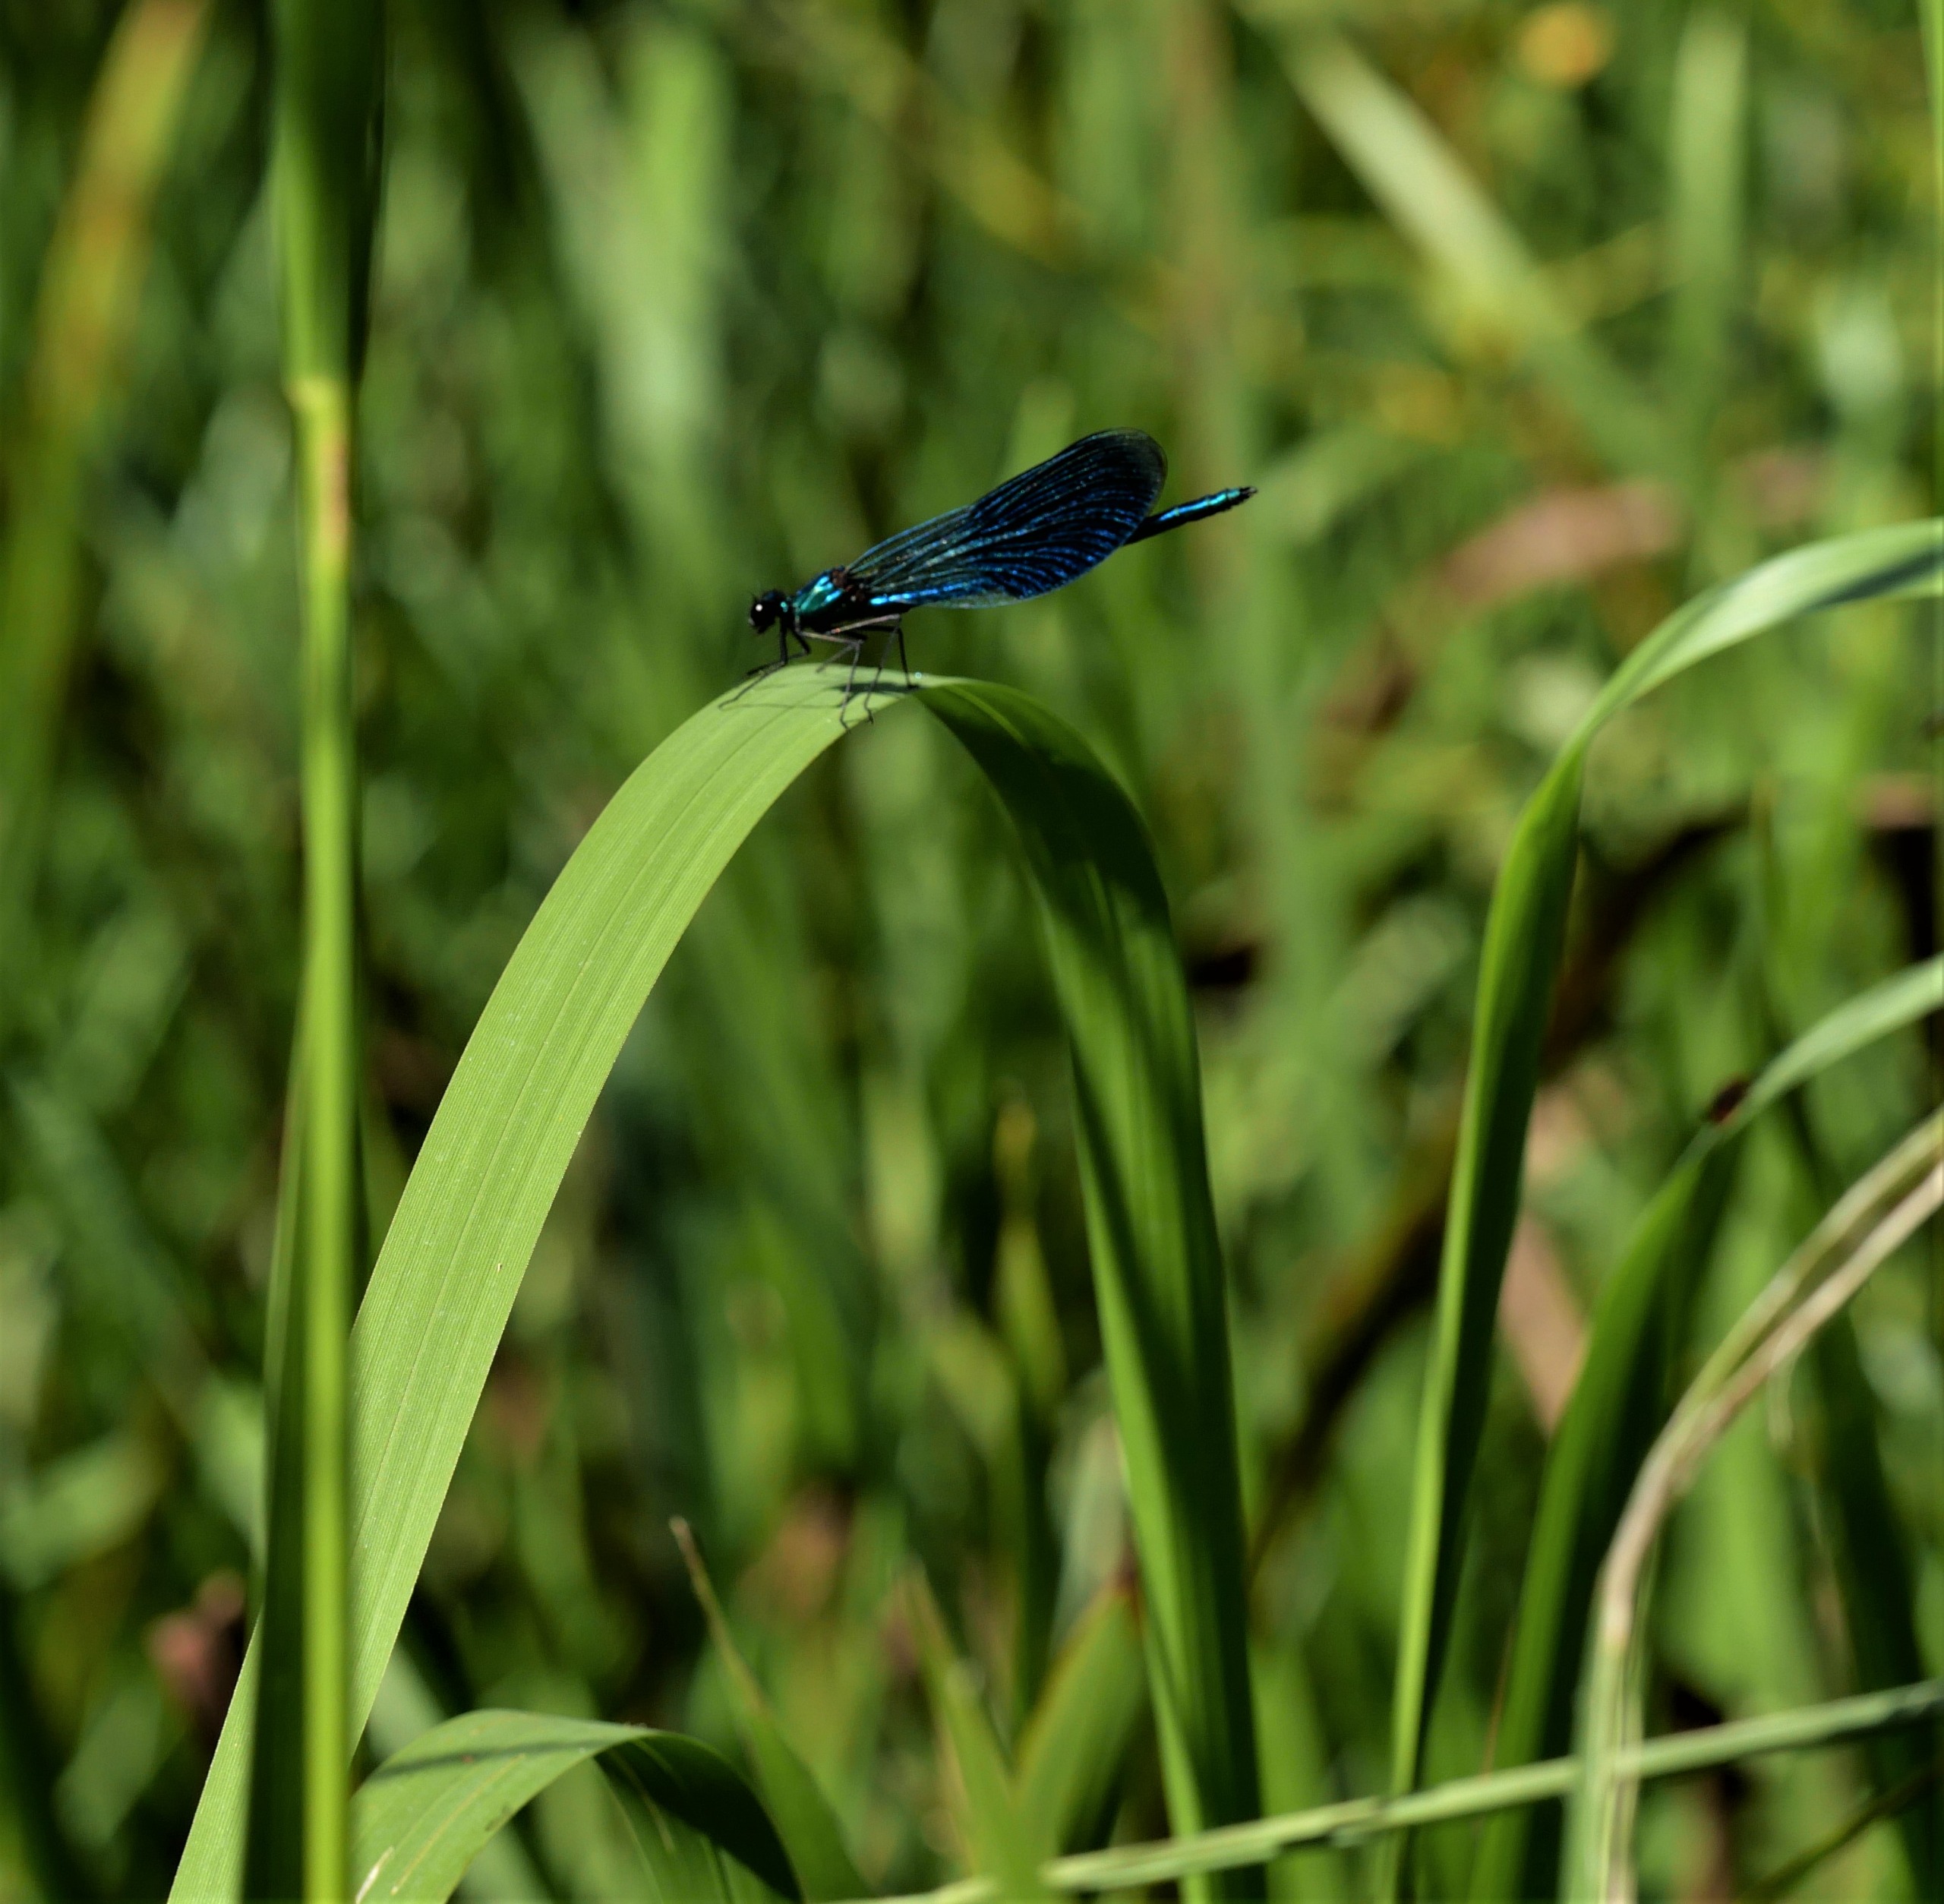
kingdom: Animalia
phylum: Arthropoda
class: Insecta
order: Odonata
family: Calopterygidae
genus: Calopteryx
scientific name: Calopteryx splendens
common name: Blåbåndet pragtvandnymfe
